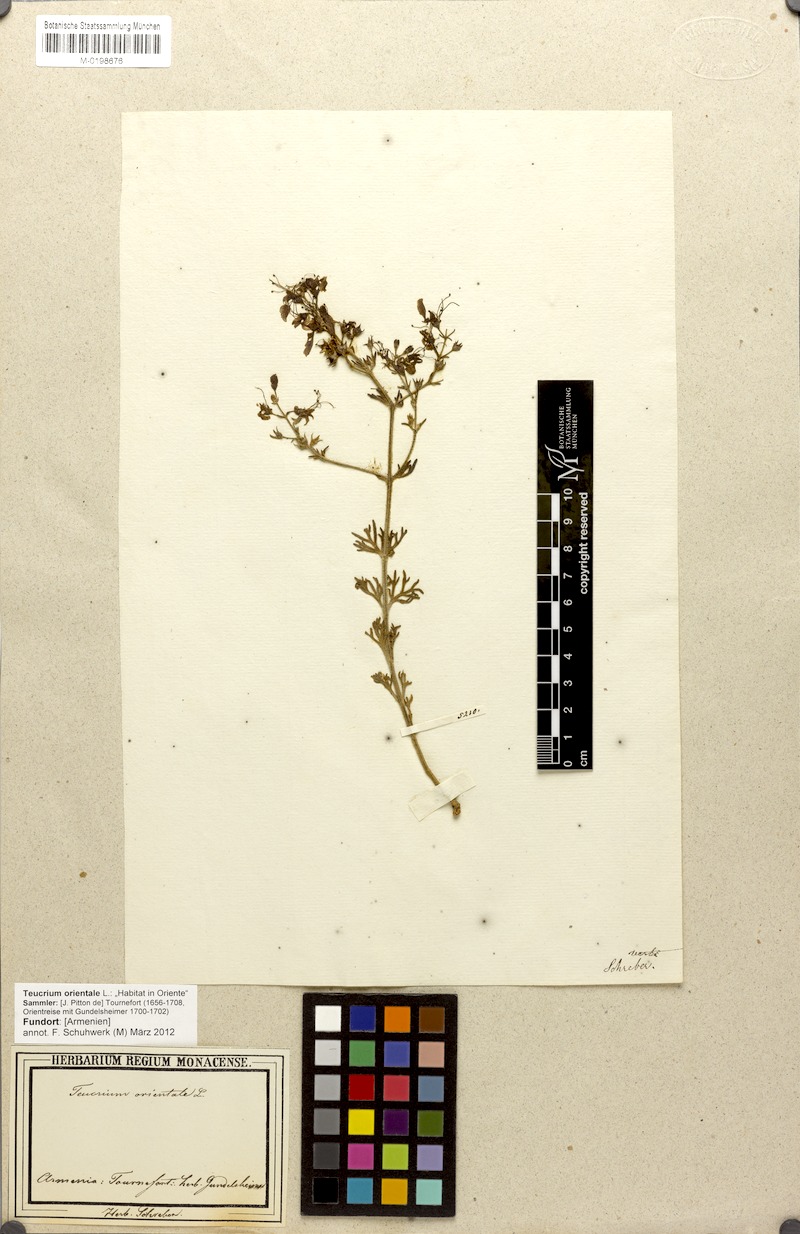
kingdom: Plantae
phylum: Tracheophyta
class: Magnoliopsida
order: Lamiales
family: Lamiaceae
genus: Teucrium
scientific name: Teucrium orientale
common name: Oriental germander
